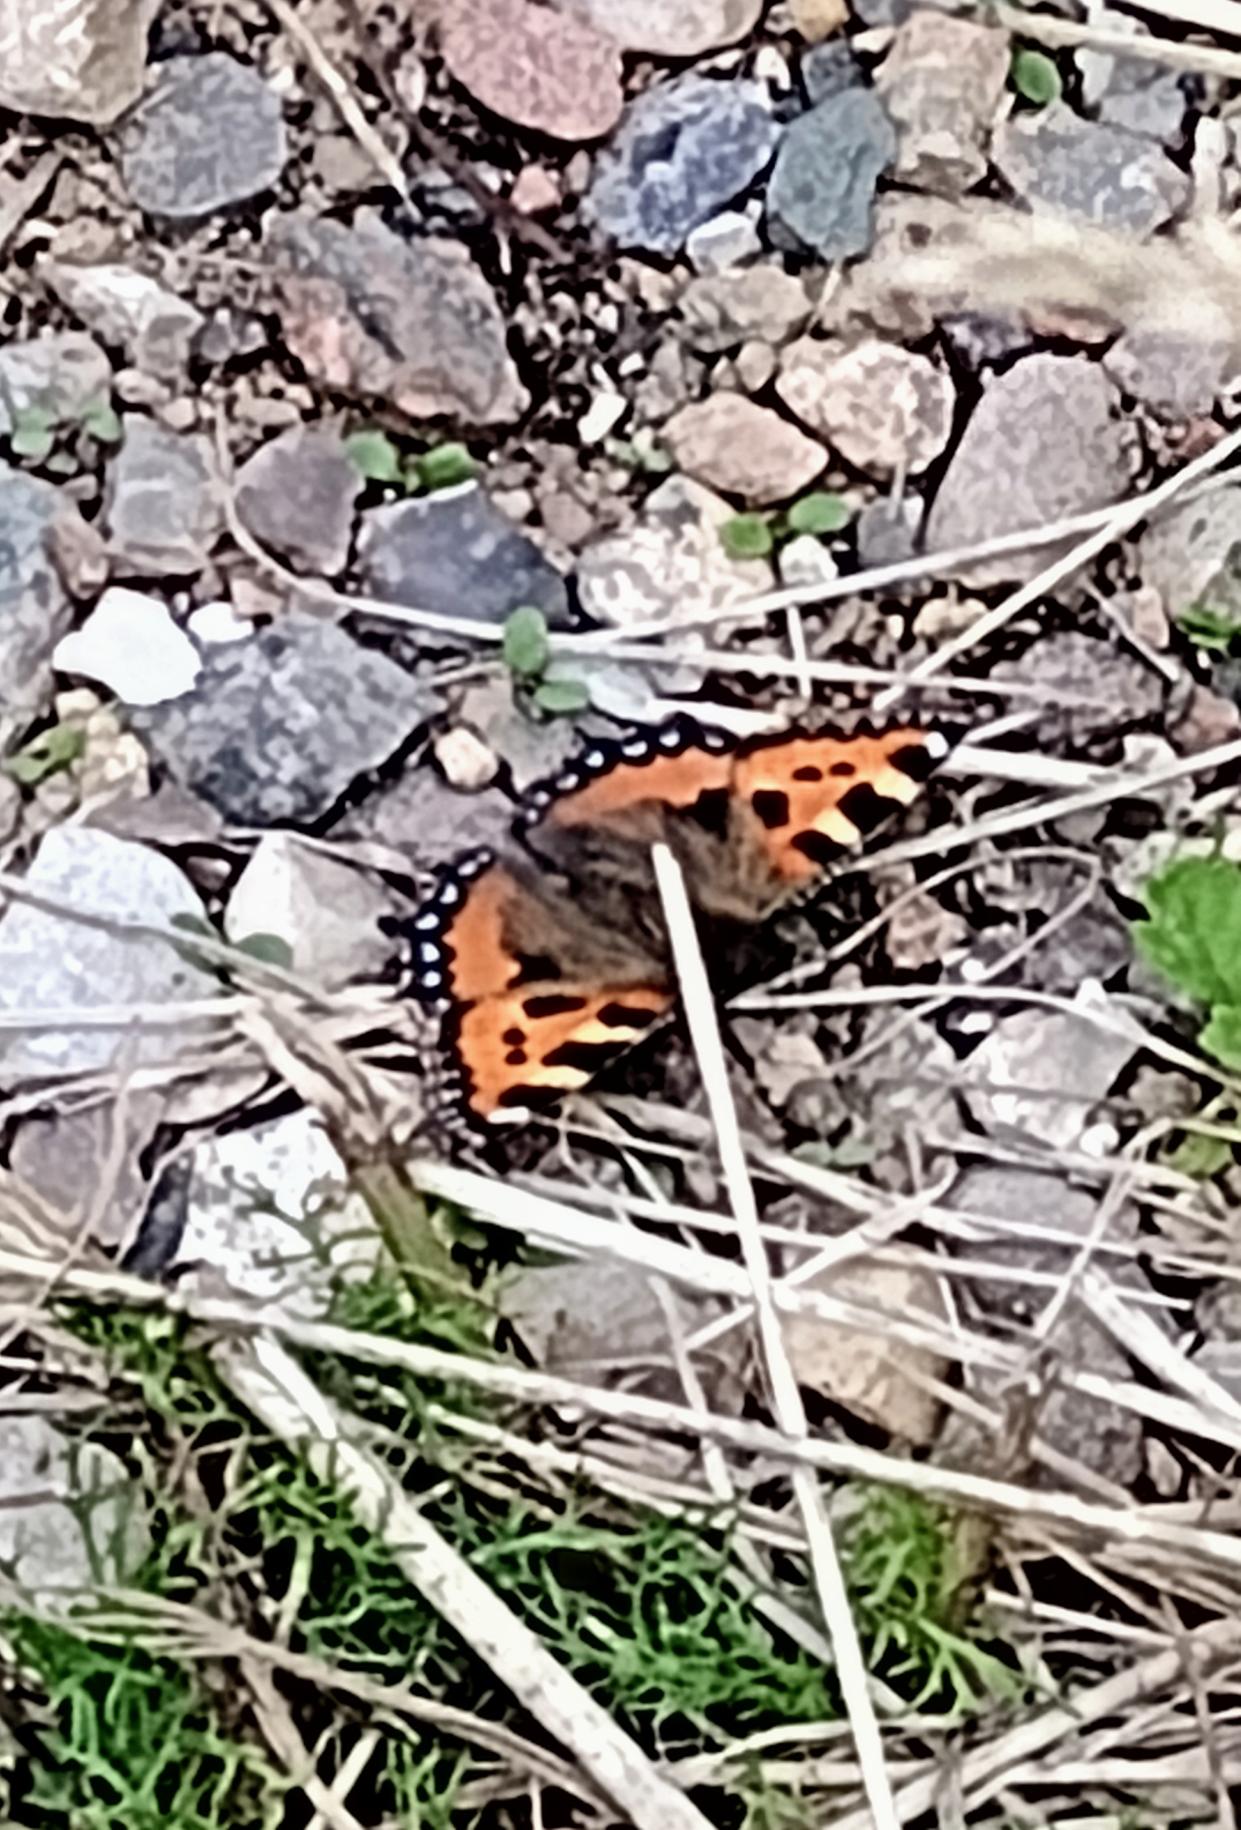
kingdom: Animalia
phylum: Arthropoda
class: Insecta
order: Lepidoptera
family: Nymphalidae
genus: Aglais
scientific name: Aglais urticae
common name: Nældens takvinge
